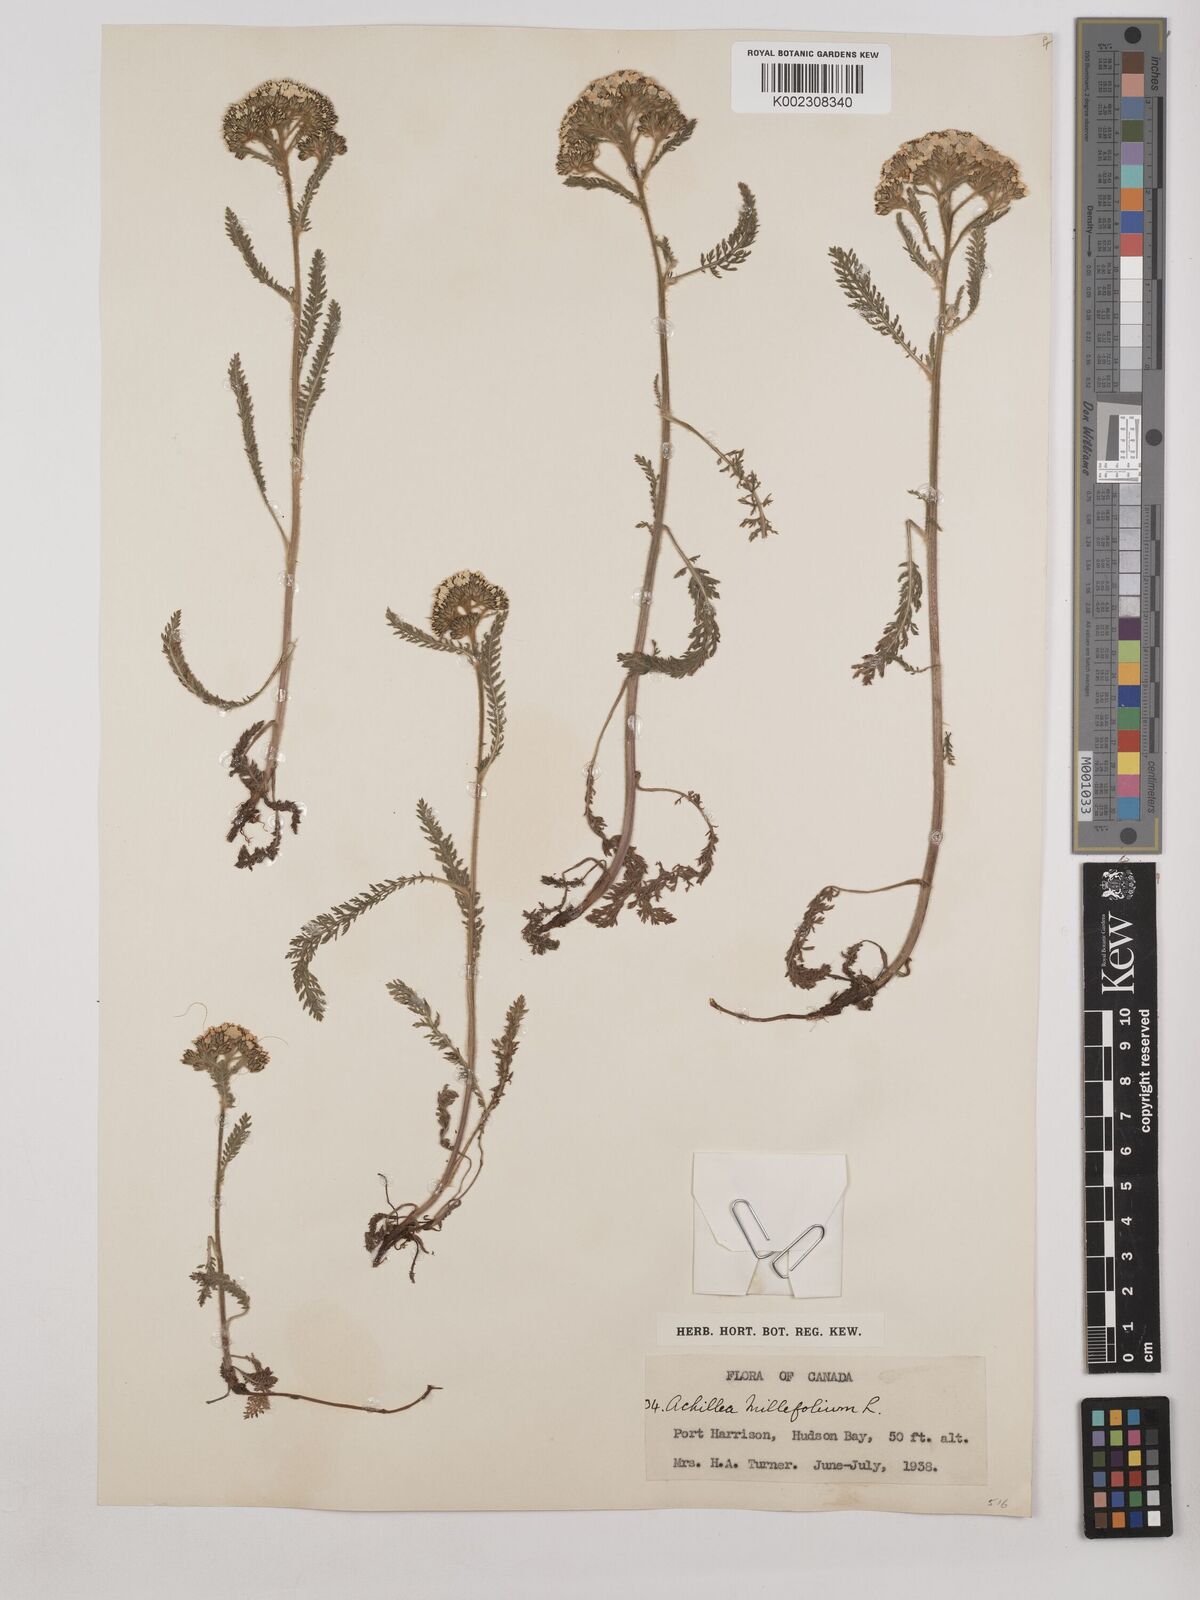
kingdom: Plantae
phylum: Tracheophyta
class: Magnoliopsida
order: Asterales
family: Asteraceae
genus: Achillea
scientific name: Achillea millefolium
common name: Yarrow
